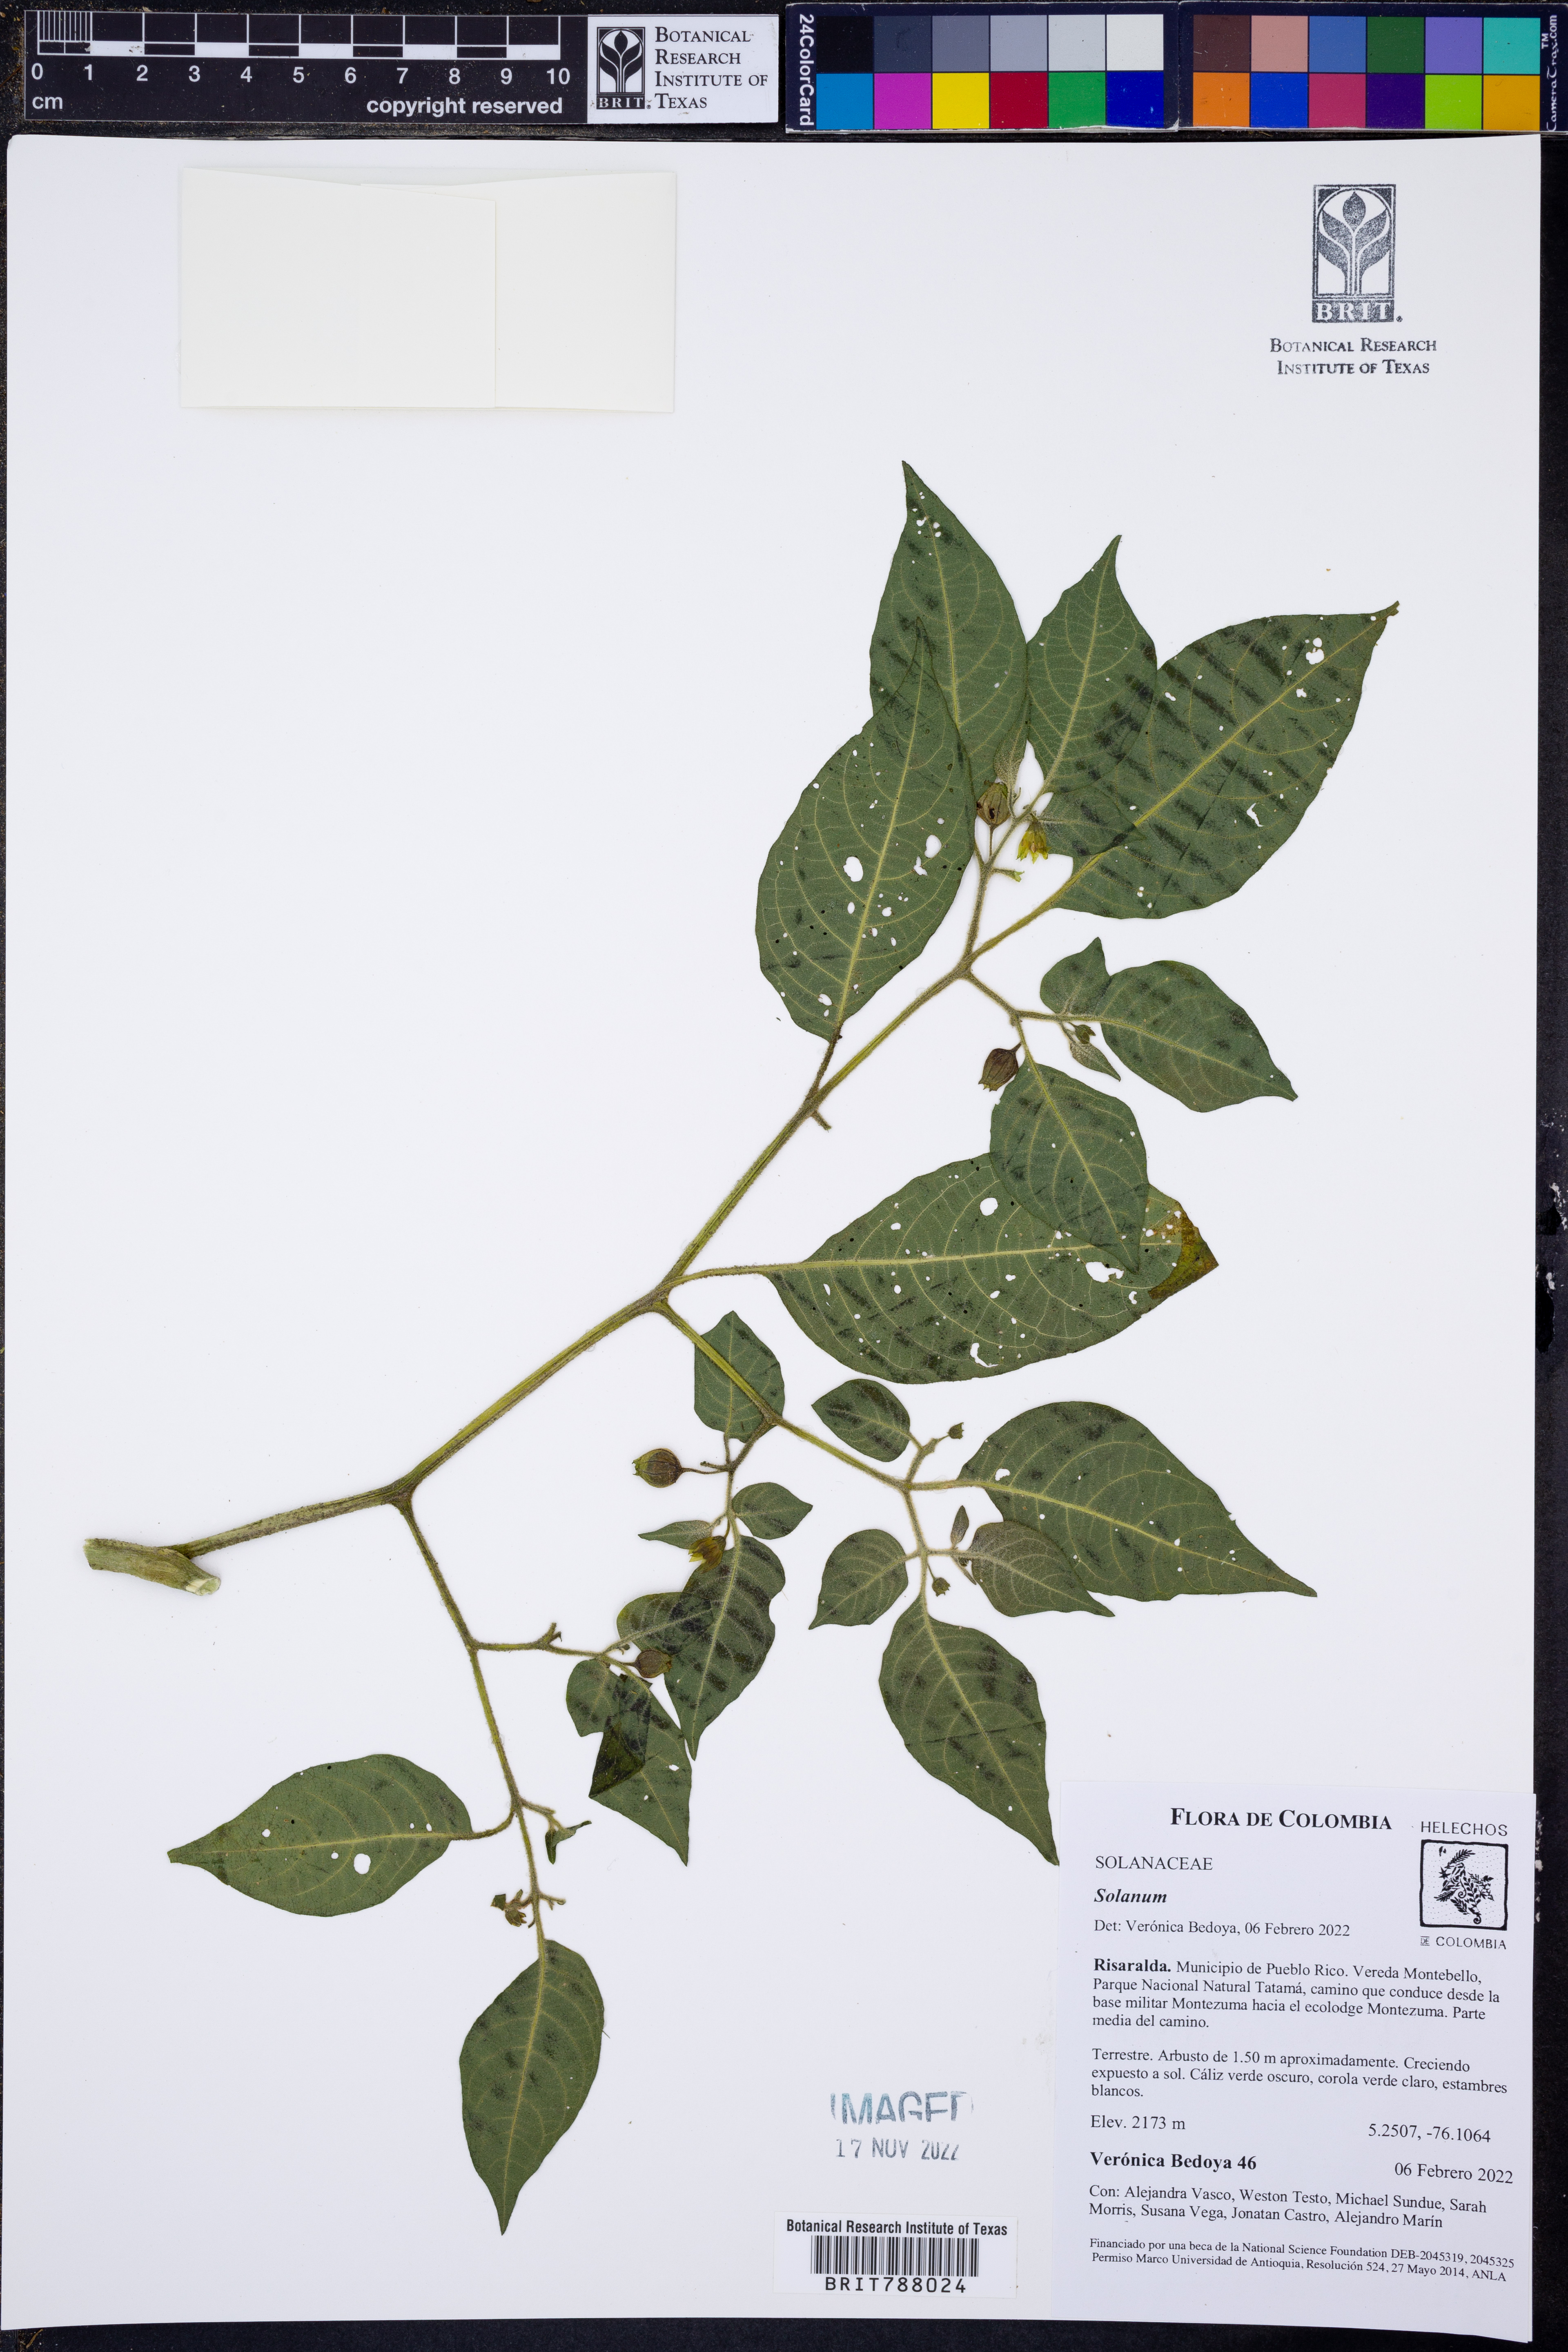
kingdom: Plantae
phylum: Tracheophyta
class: Magnoliopsida
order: Solanales
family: Solanaceae
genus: Solanum
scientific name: Solanum
